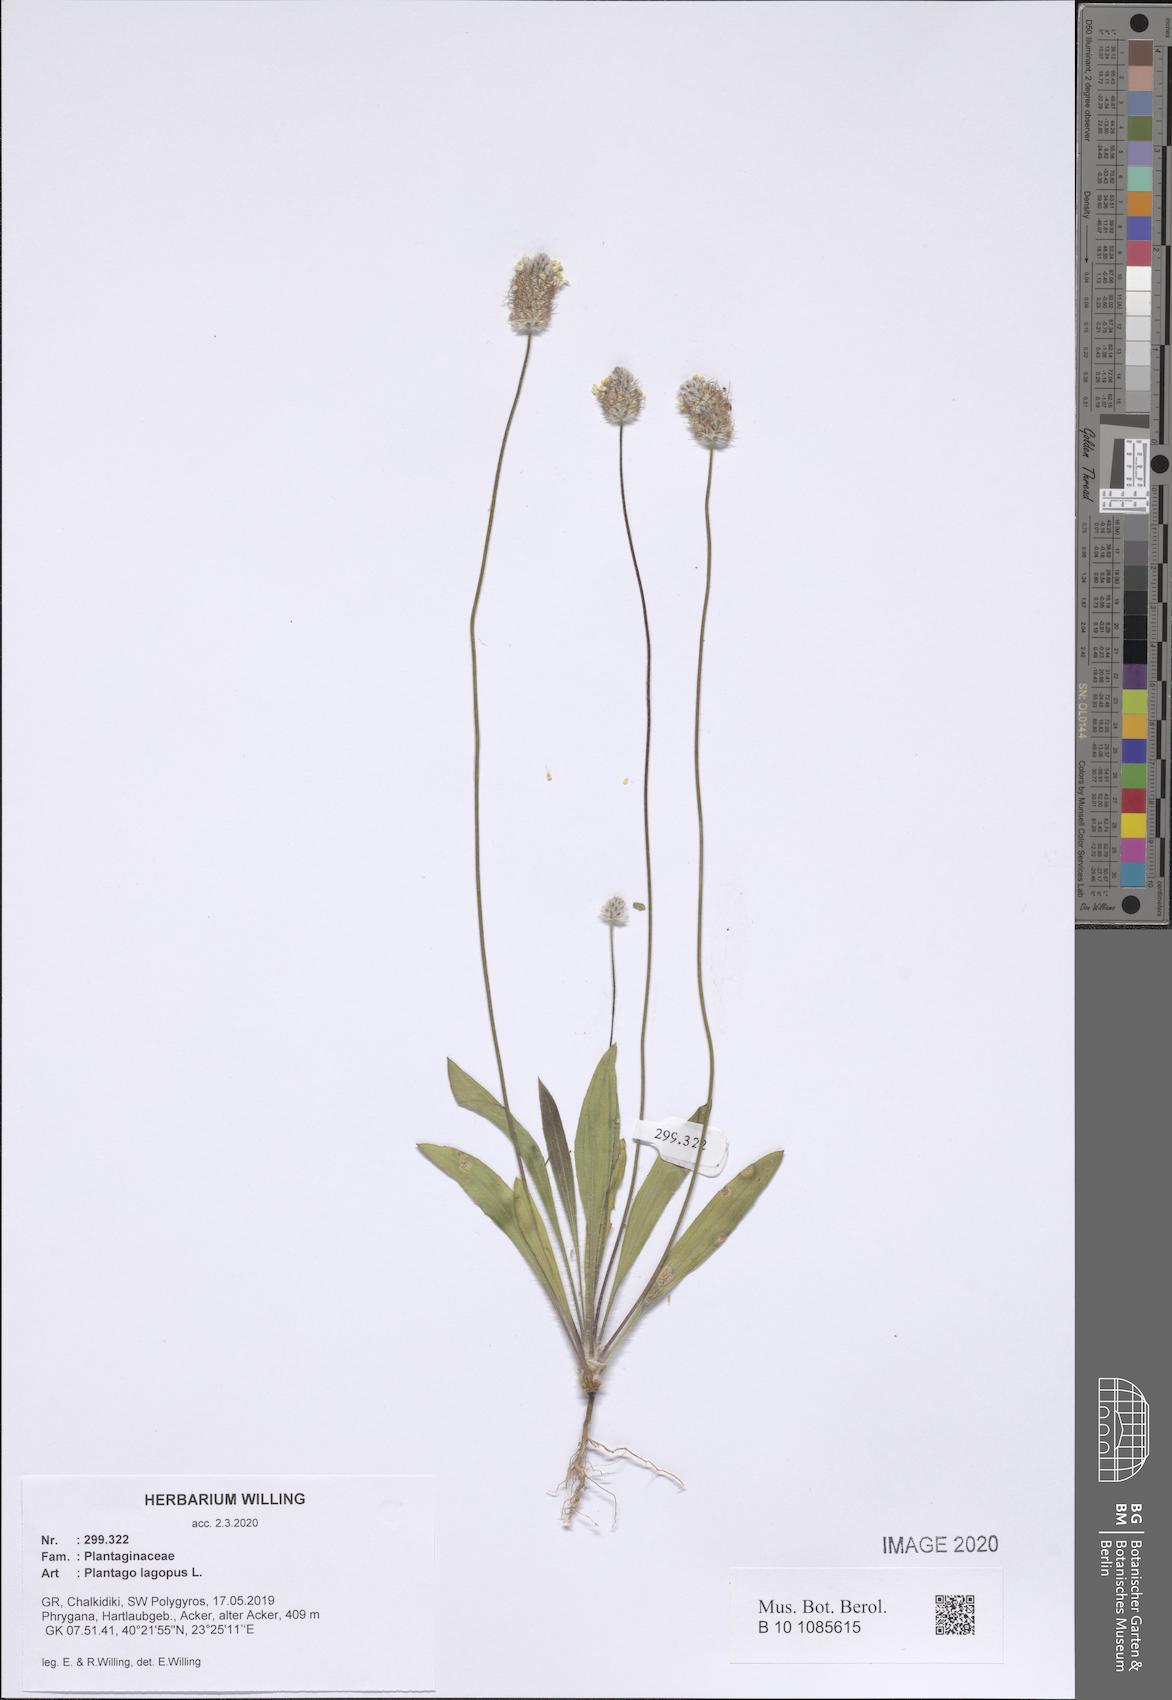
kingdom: Plantae
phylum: Tracheophyta
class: Magnoliopsida
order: Lamiales
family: Plantaginaceae
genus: Plantago
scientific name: Plantago lagopus
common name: Hare-foot plantain
